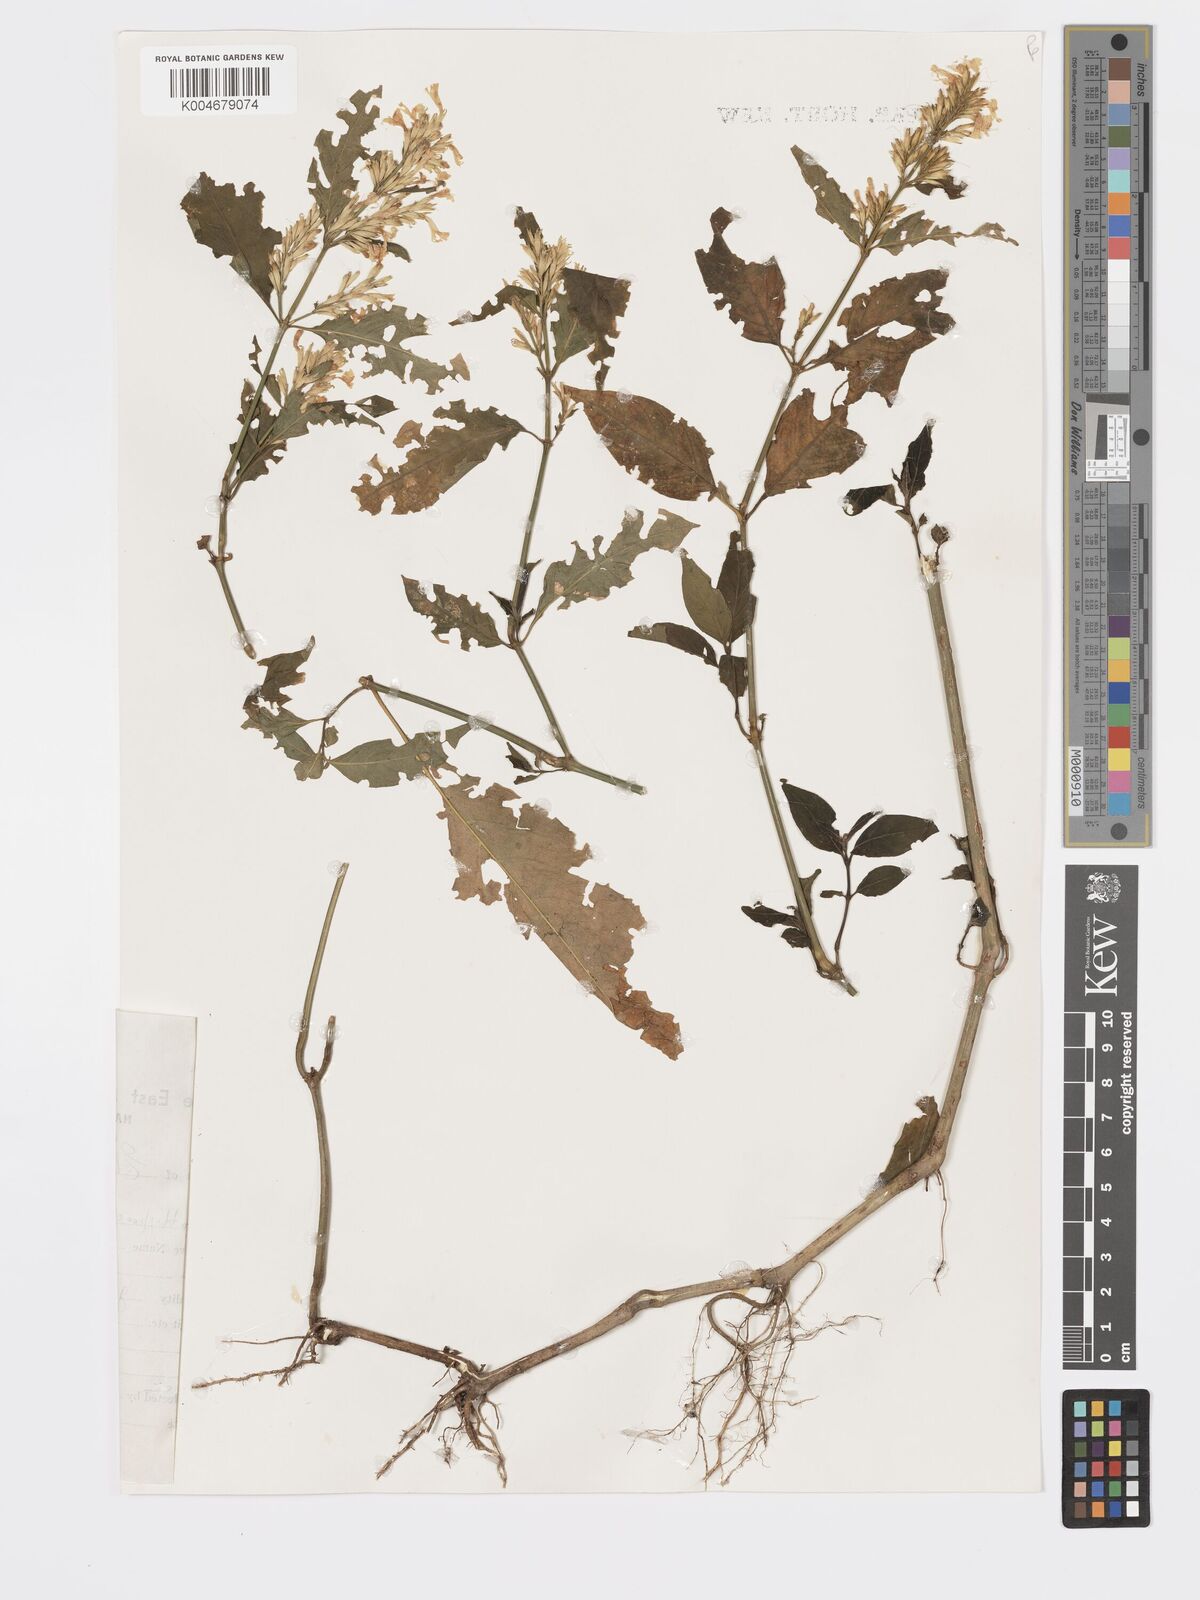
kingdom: Plantae
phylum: Tracheophyta
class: Magnoliopsida
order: Lamiales
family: Acanthaceae
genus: Hypoestes
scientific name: Hypoestes forskaolii
